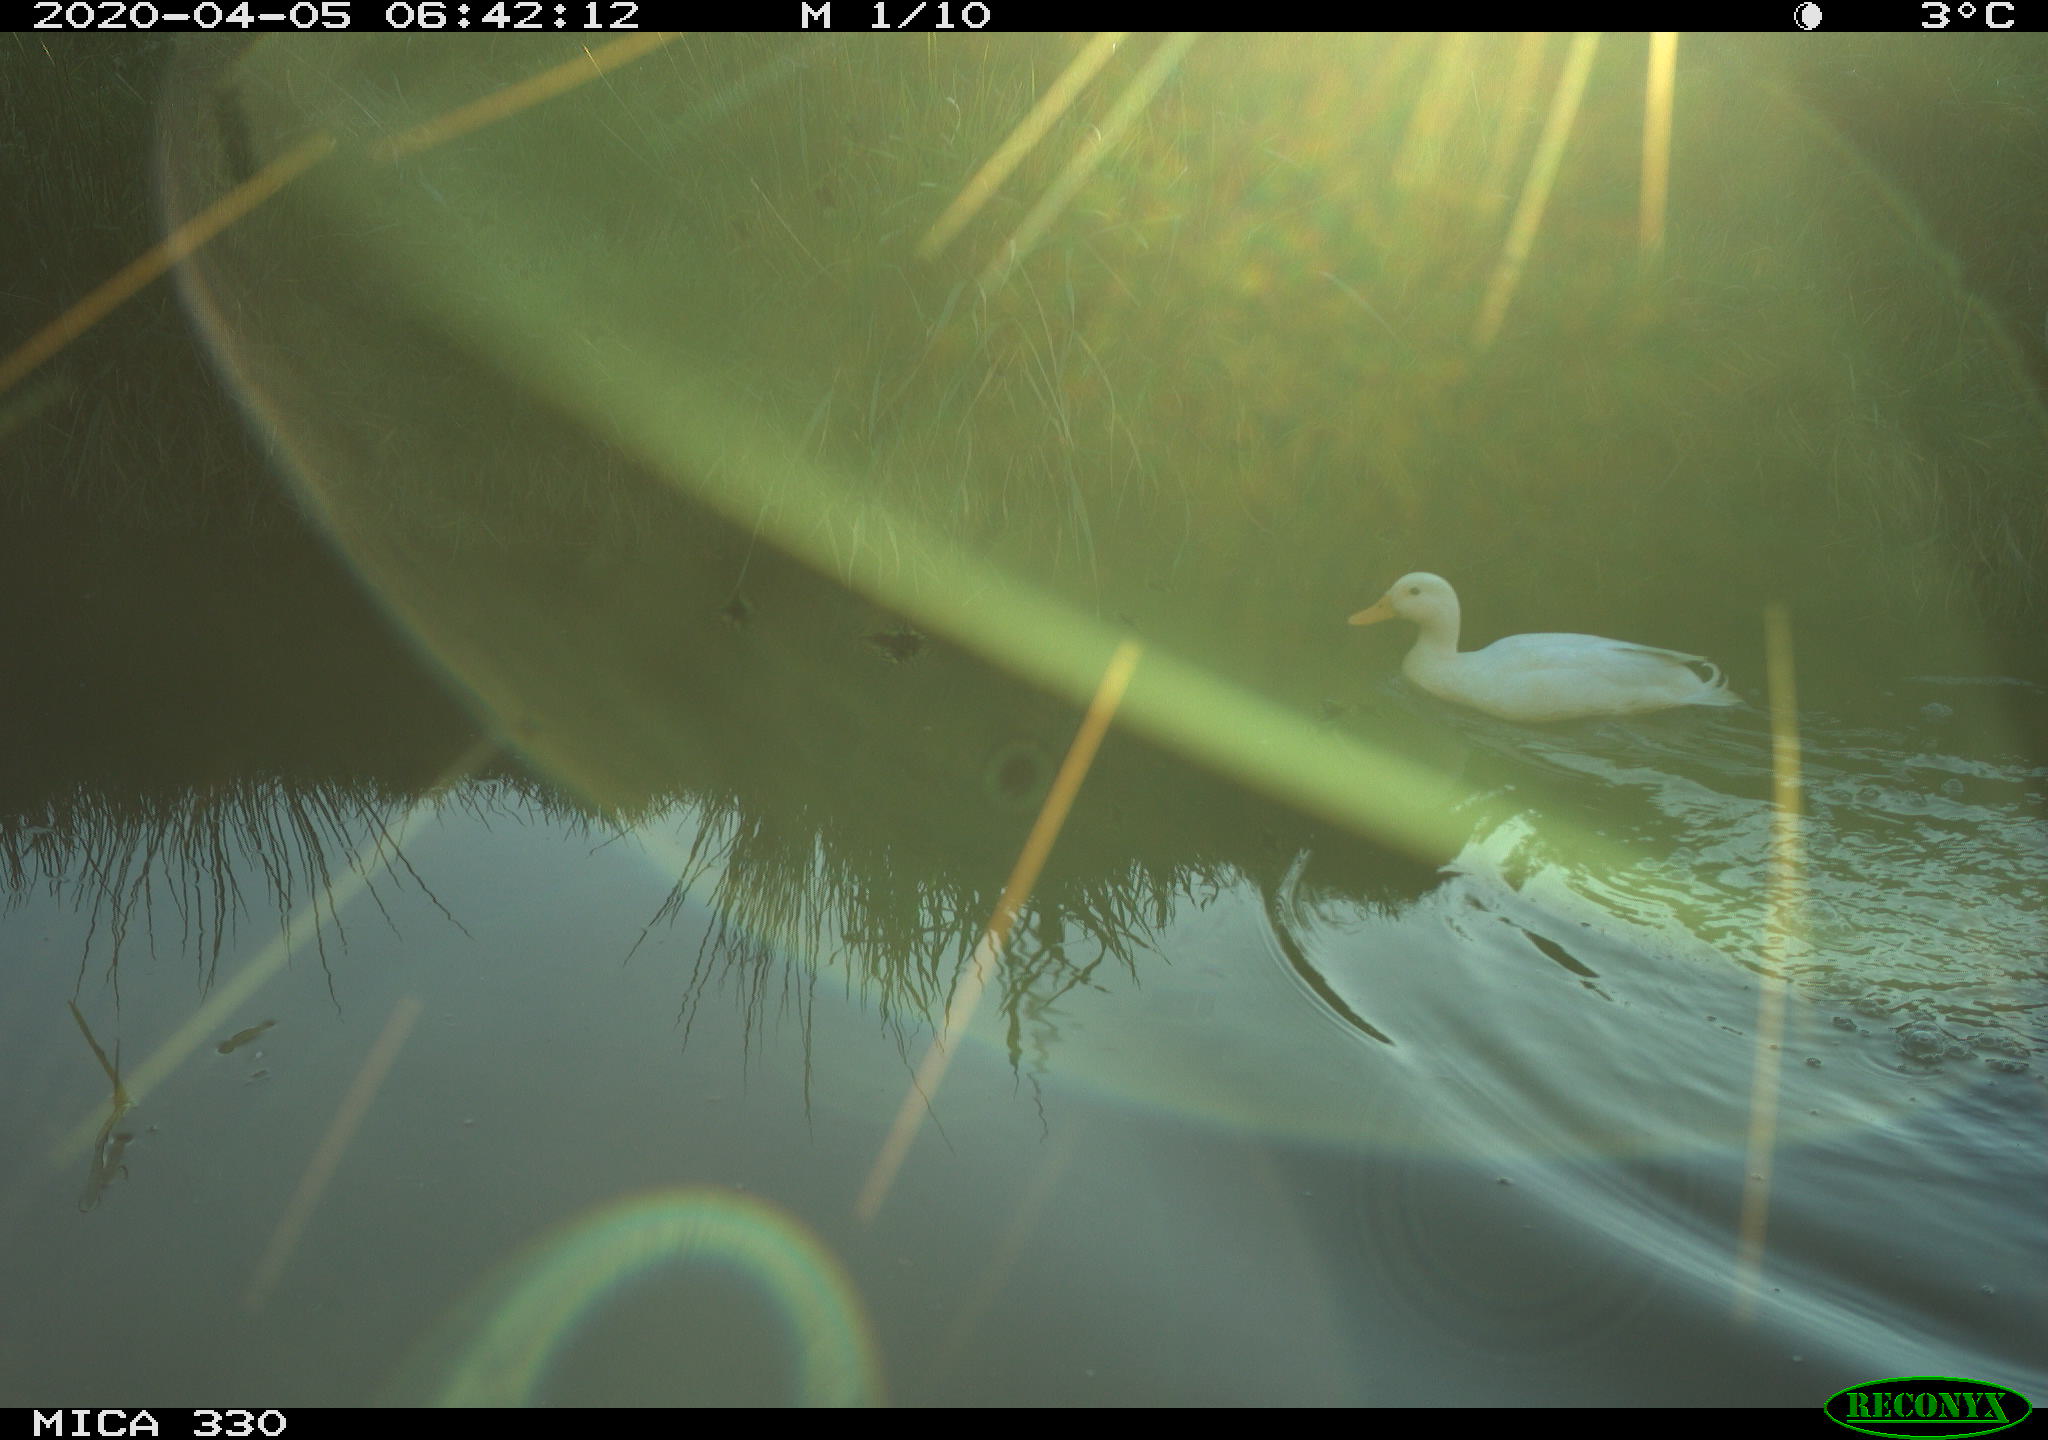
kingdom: Animalia
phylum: Chordata
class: Aves
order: Anseriformes
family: Anatidae
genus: Anas
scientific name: Anas platyrhynchos
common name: Mallard
